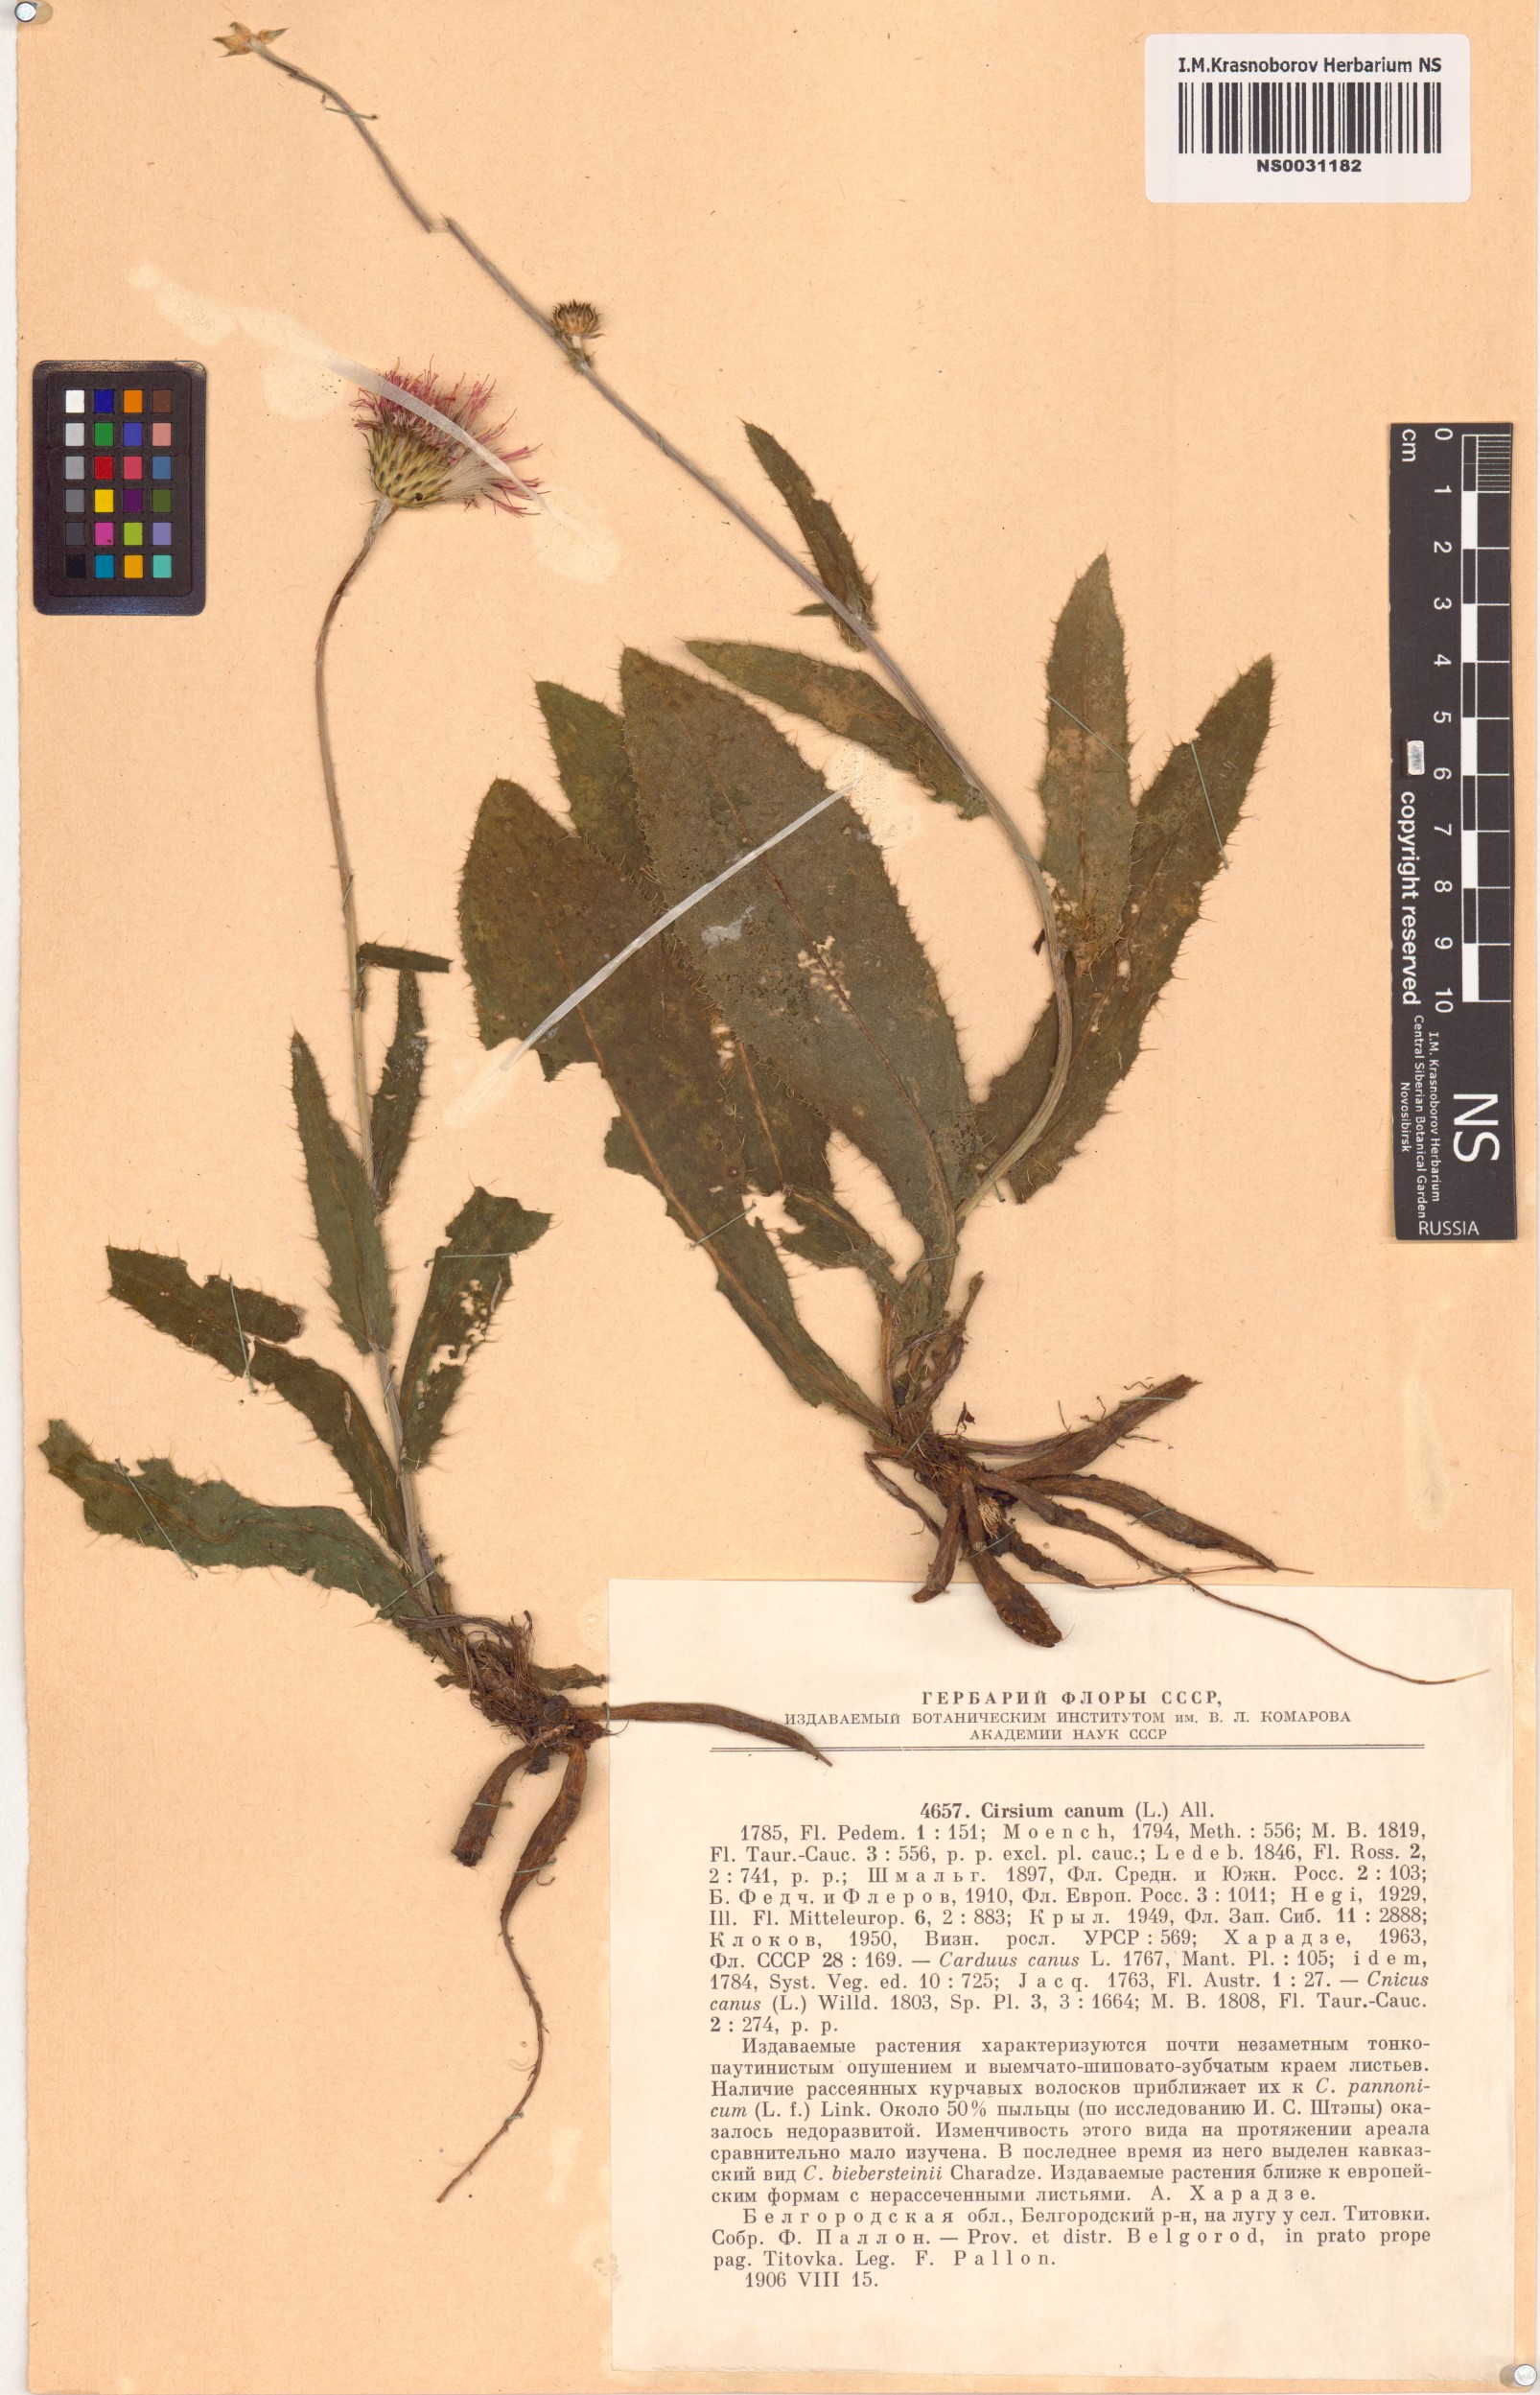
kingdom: Plantae
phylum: Tracheophyta
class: Magnoliopsida
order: Asterales
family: Asteraceae
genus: Cirsium
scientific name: Cirsium canum
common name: Queen anne's thistle
